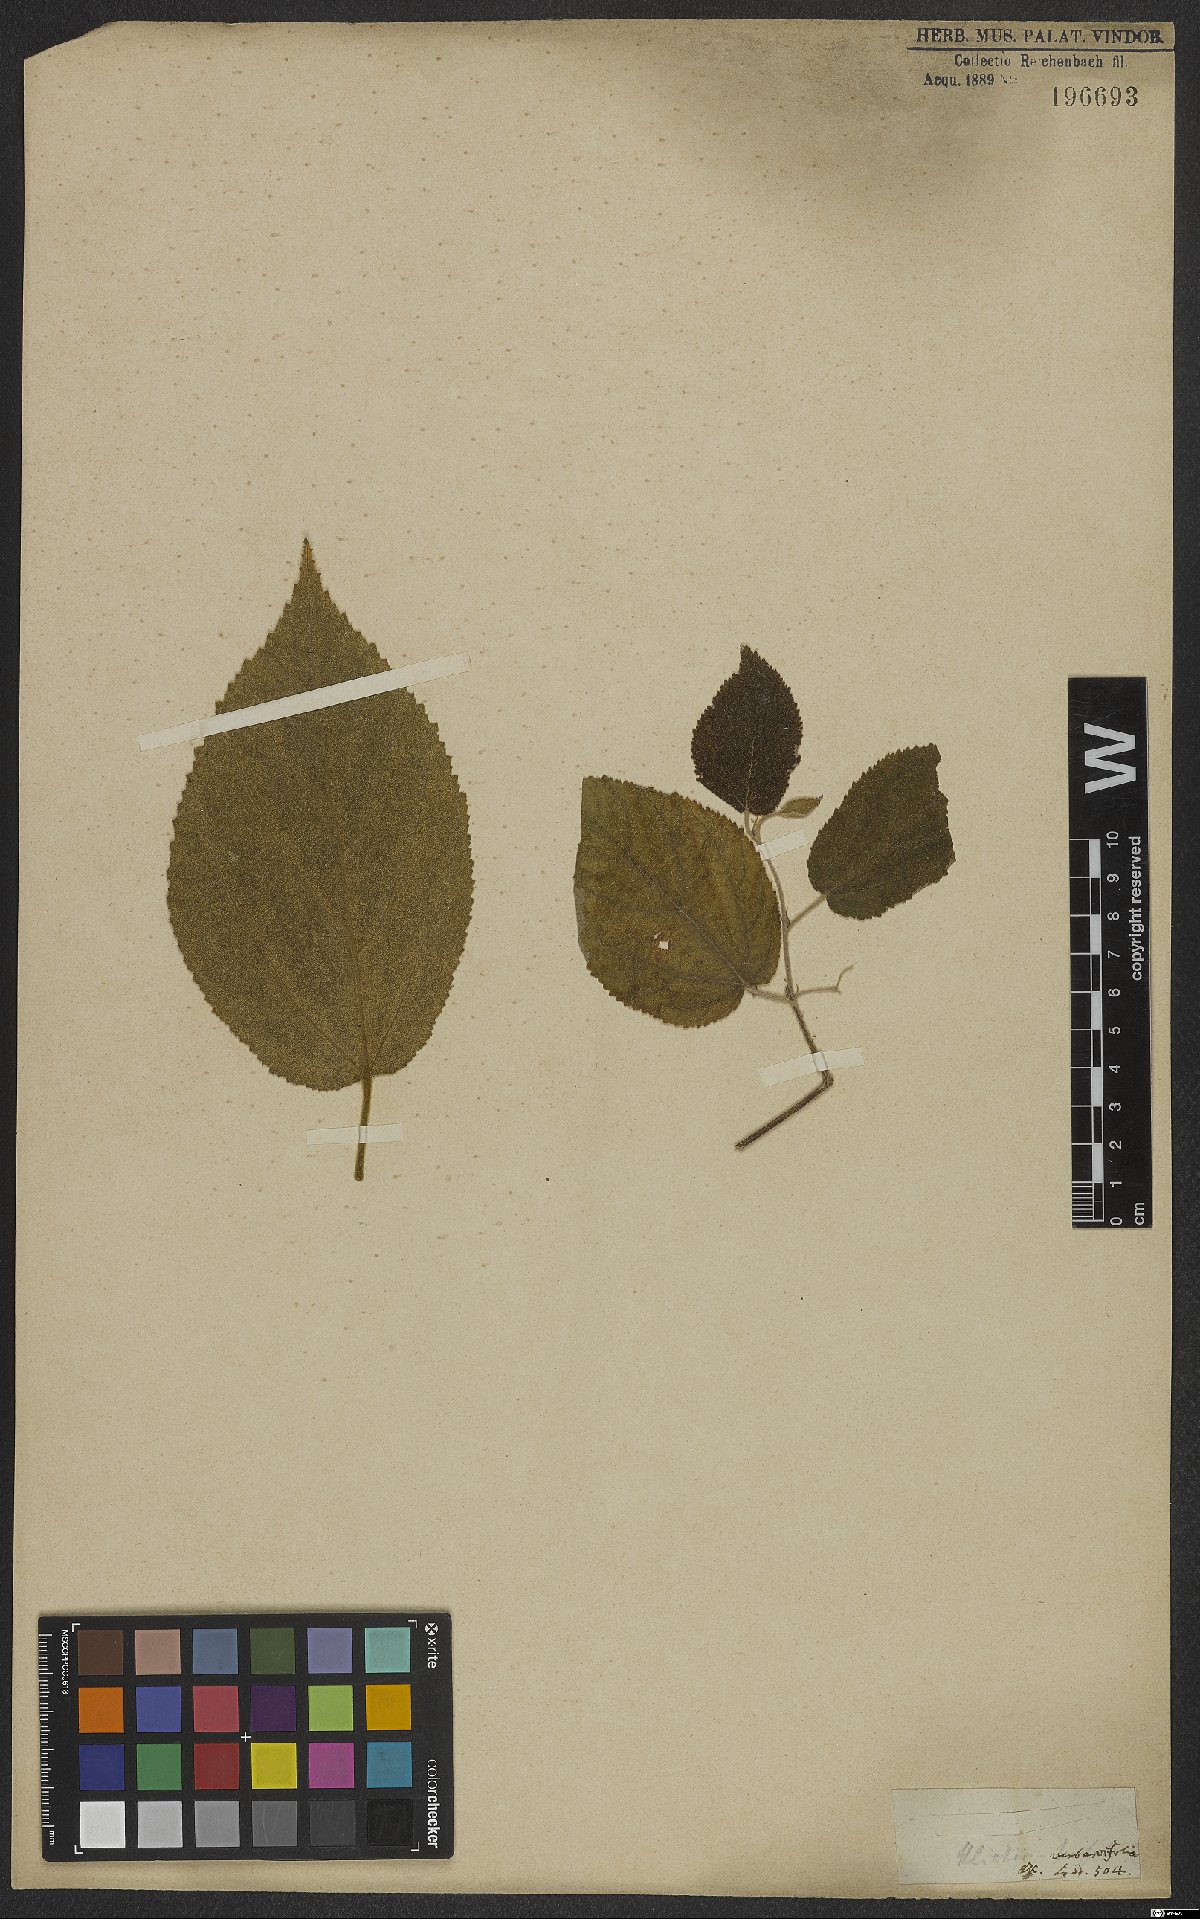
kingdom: Plantae
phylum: Tracheophyta
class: Magnoliopsida
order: Malvales
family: Malvaceae
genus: Helicteres
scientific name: Helicteres ovata
